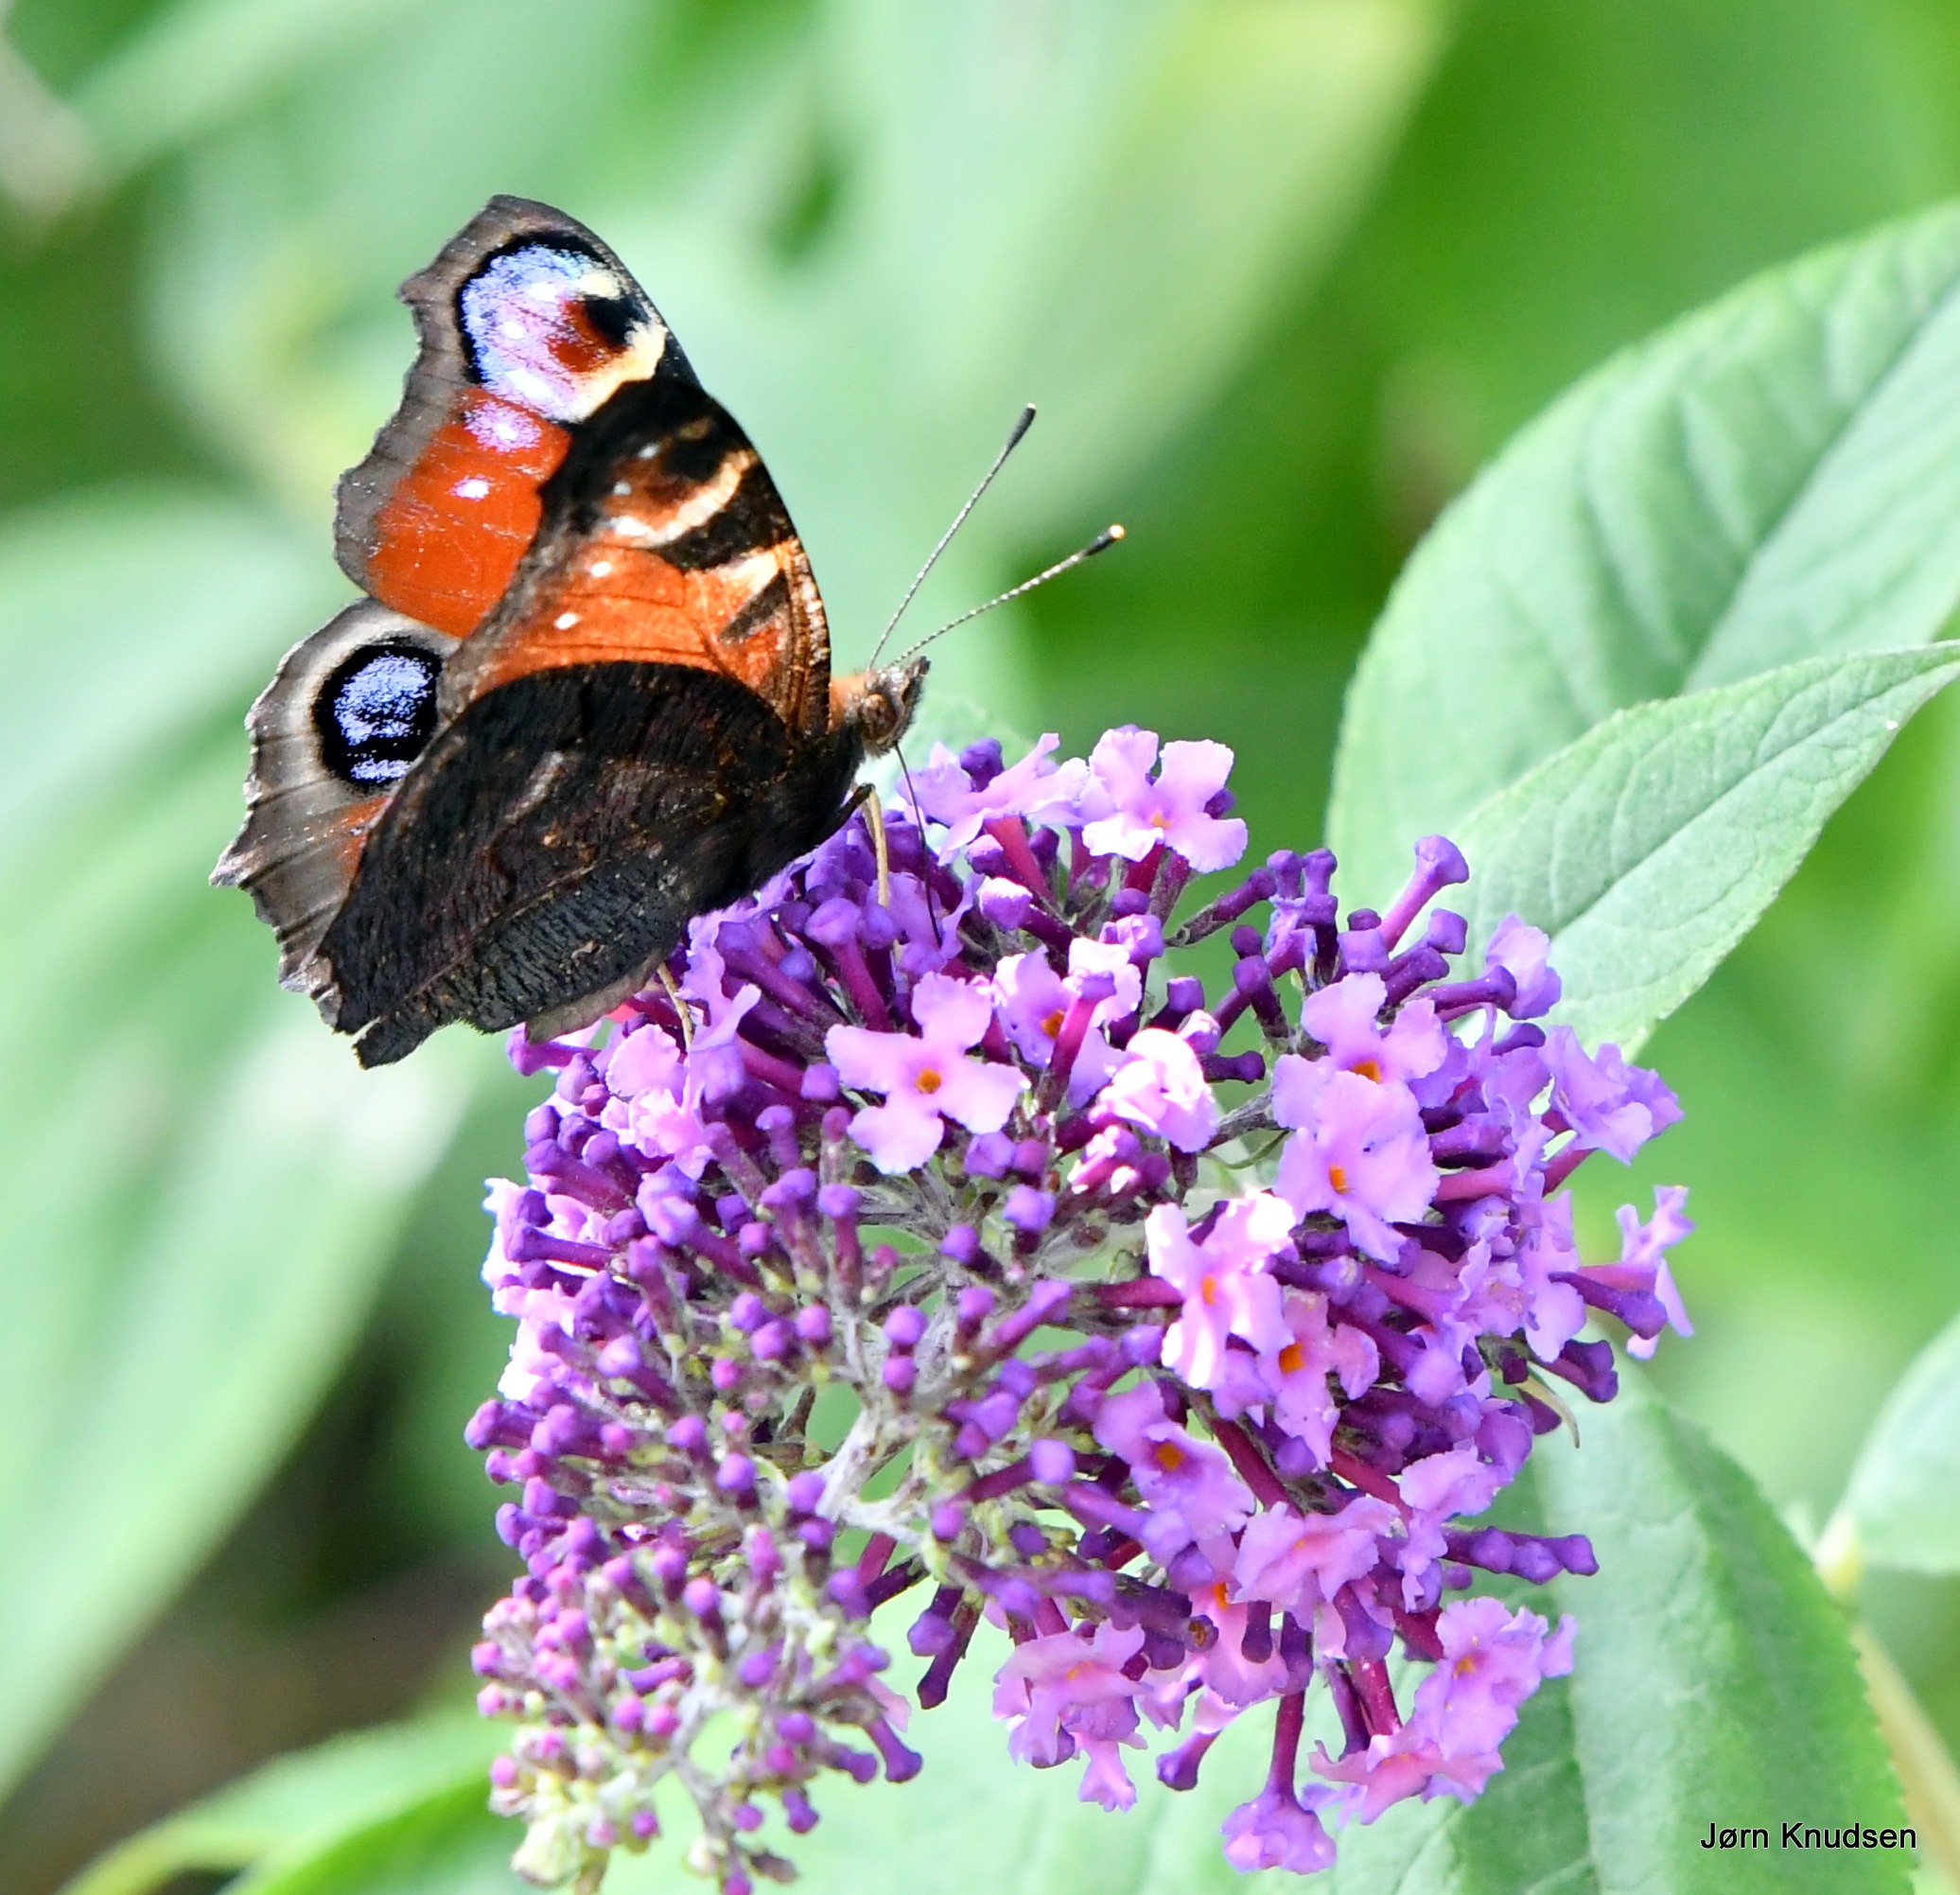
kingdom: Animalia
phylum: Arthropoda
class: Insecta
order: Lepidoptera
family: Nymphalidae
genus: Aglais
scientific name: Aglais io
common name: Dagpåfugleøje
